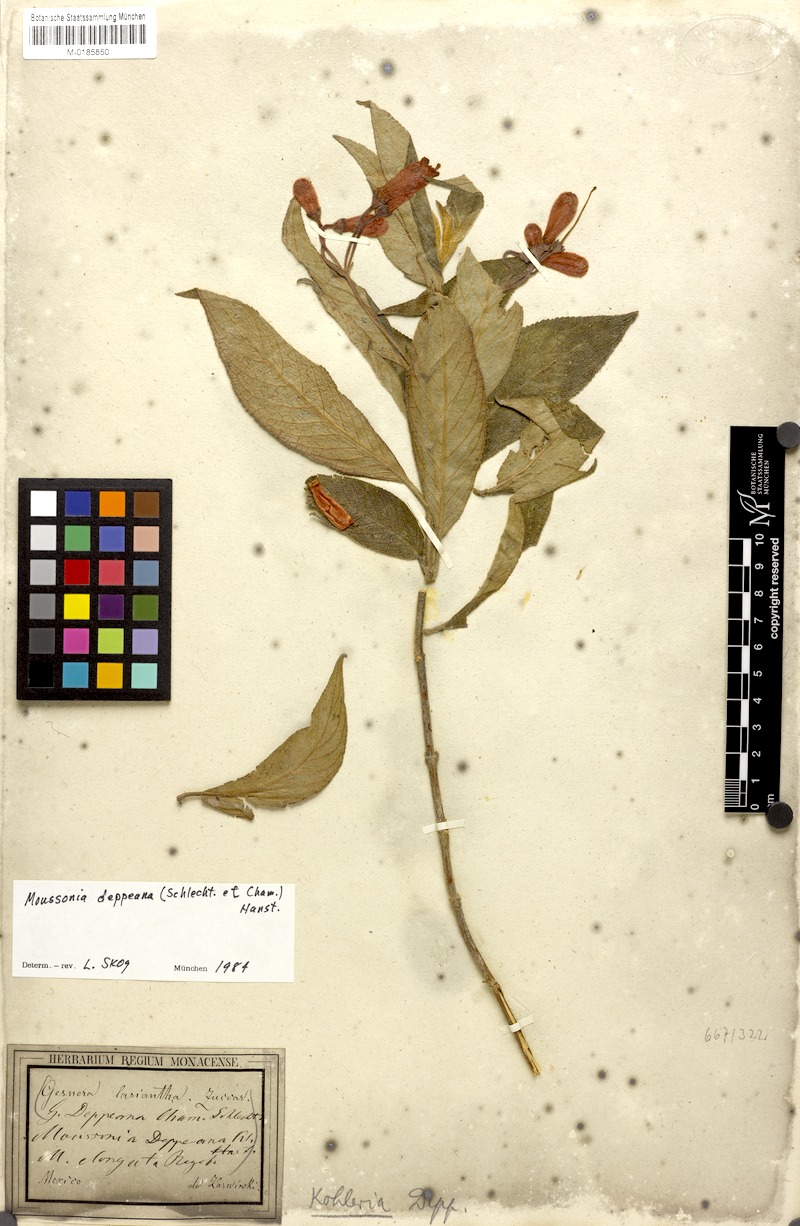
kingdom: Plantae
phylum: Tracheophyta
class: Magnoliopsida
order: Lamiales
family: Gesneriaceae
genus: Moussonia
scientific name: Moussonia deppeana
